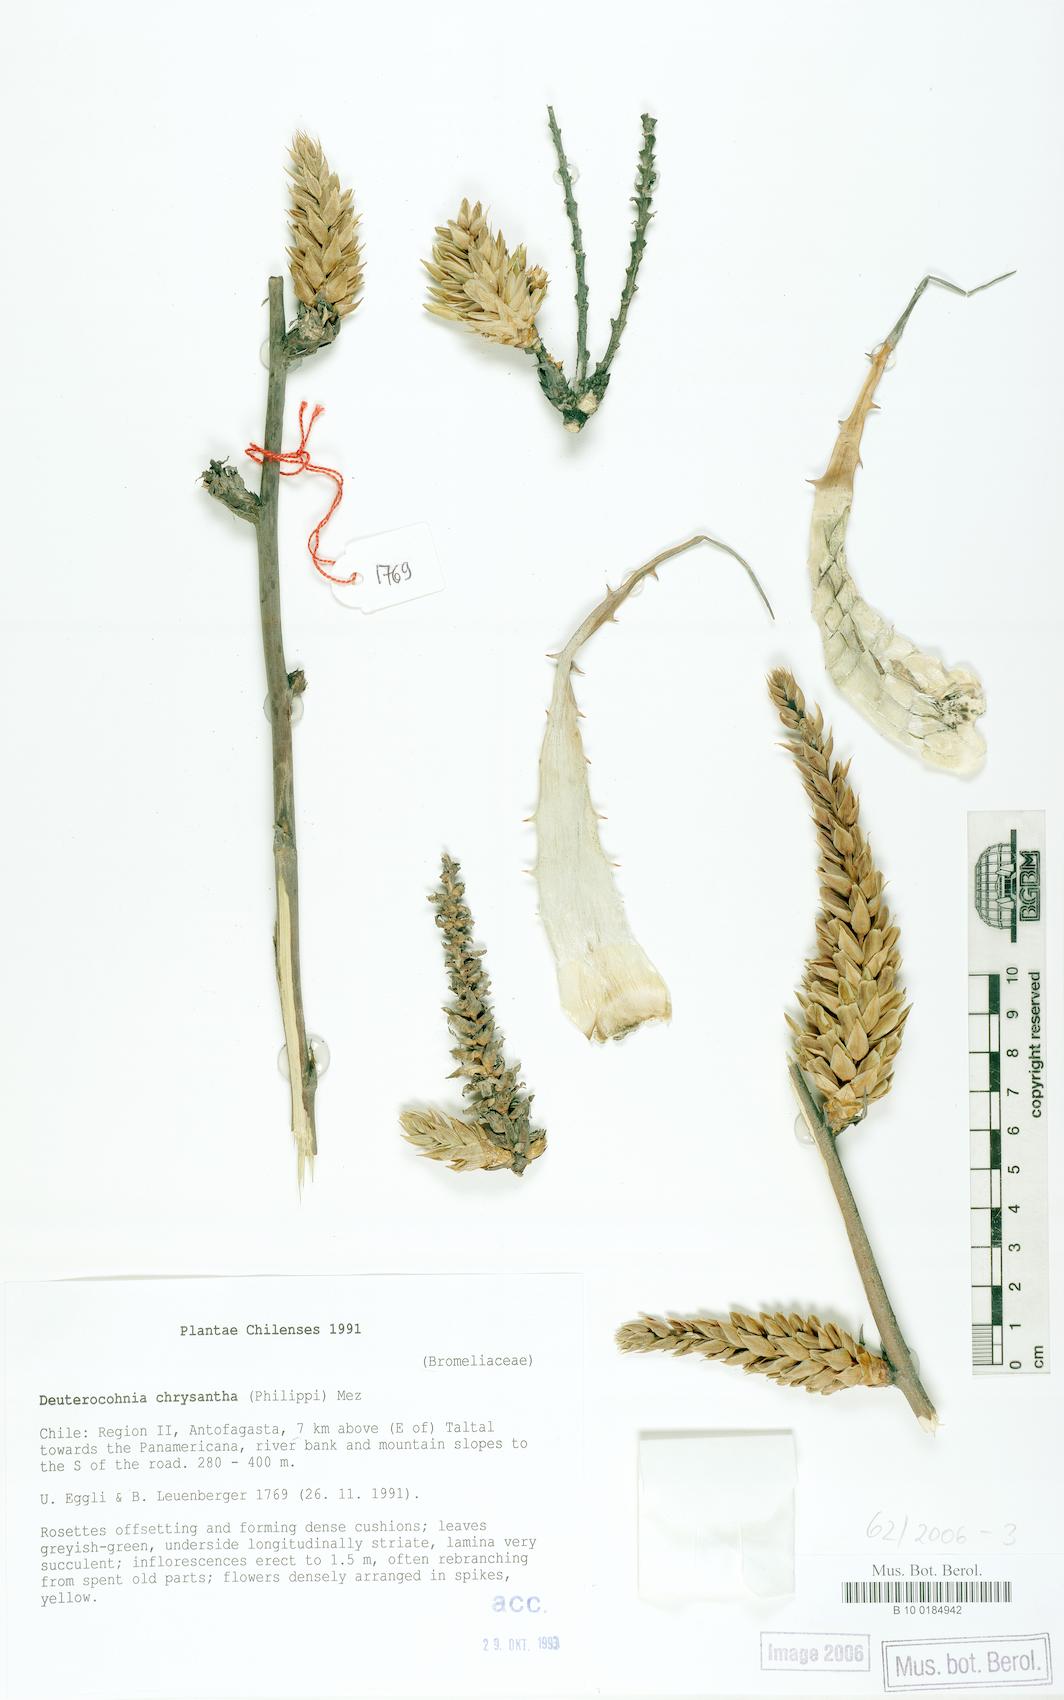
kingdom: Plantae
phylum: Tracheophyta
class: Liliopsida
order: Poales
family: Bromeliaceae
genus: Deuterocohnia
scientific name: Deuterocohnia chrysantha
